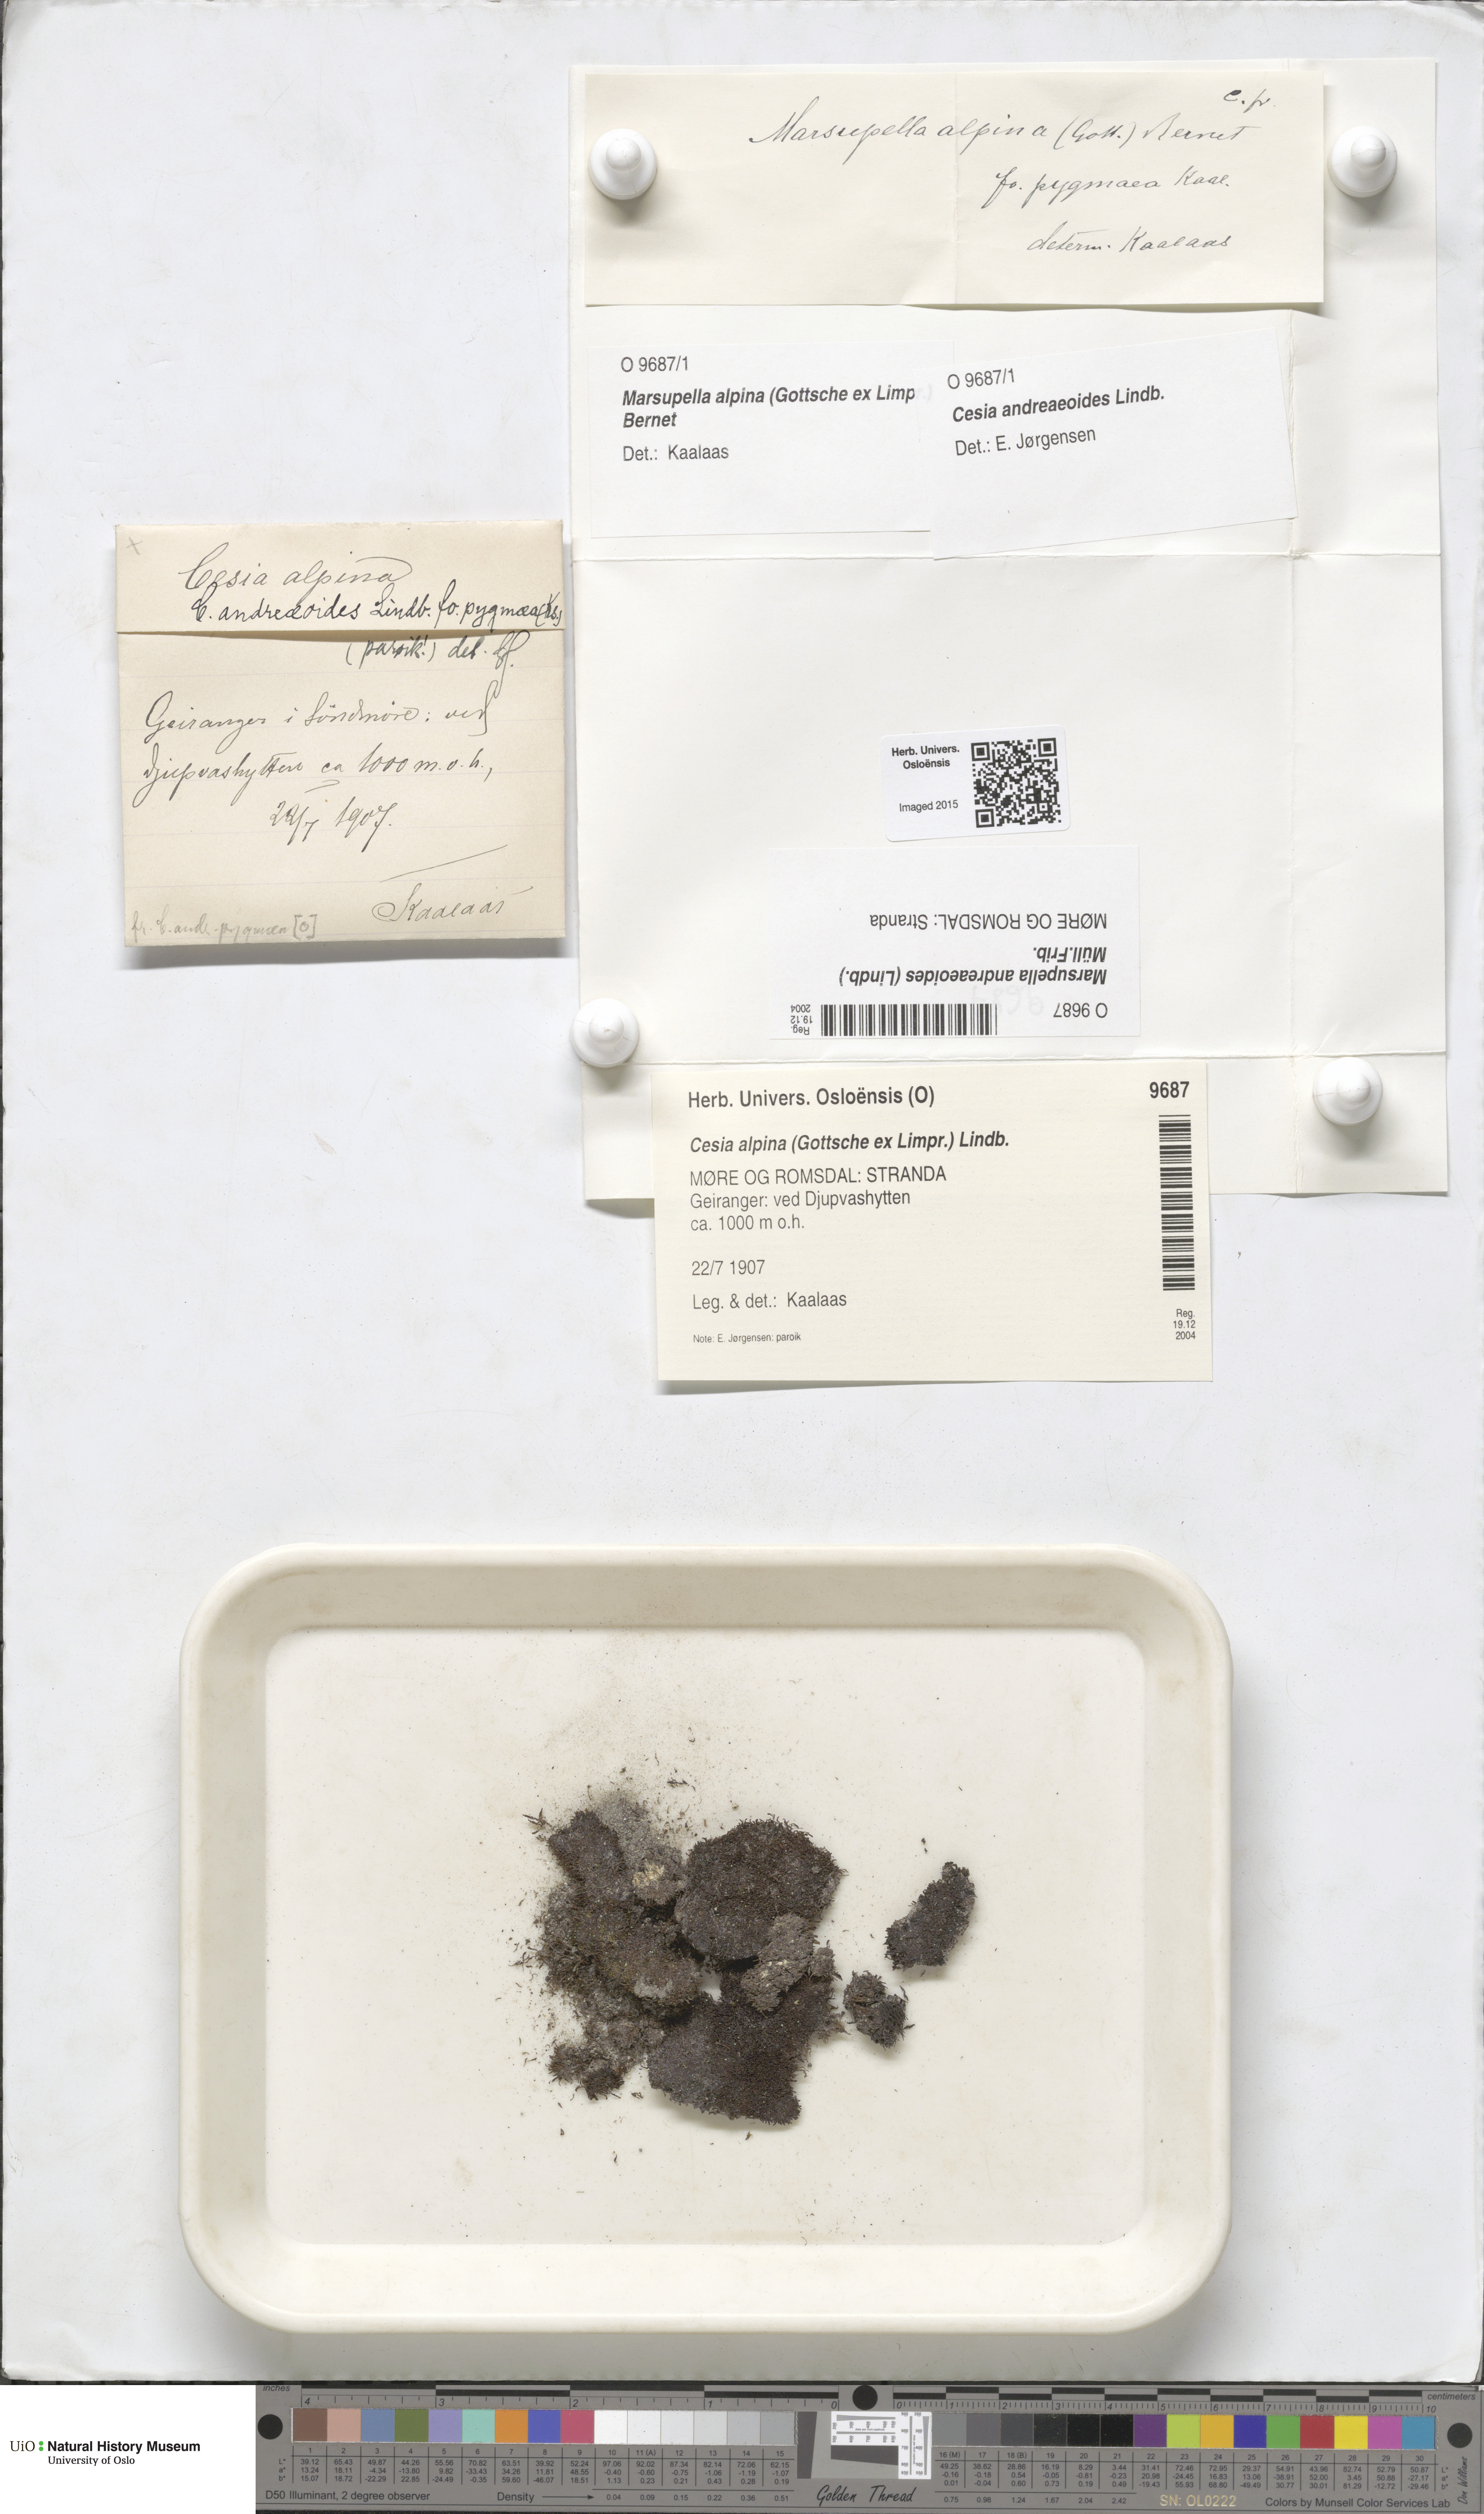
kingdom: Plantae
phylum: Marchantiophyta
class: Jungermanniopsida
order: Jungermanniales
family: Gymnomitriaceae
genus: Marsupella
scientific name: Marsupella andreaeoides
